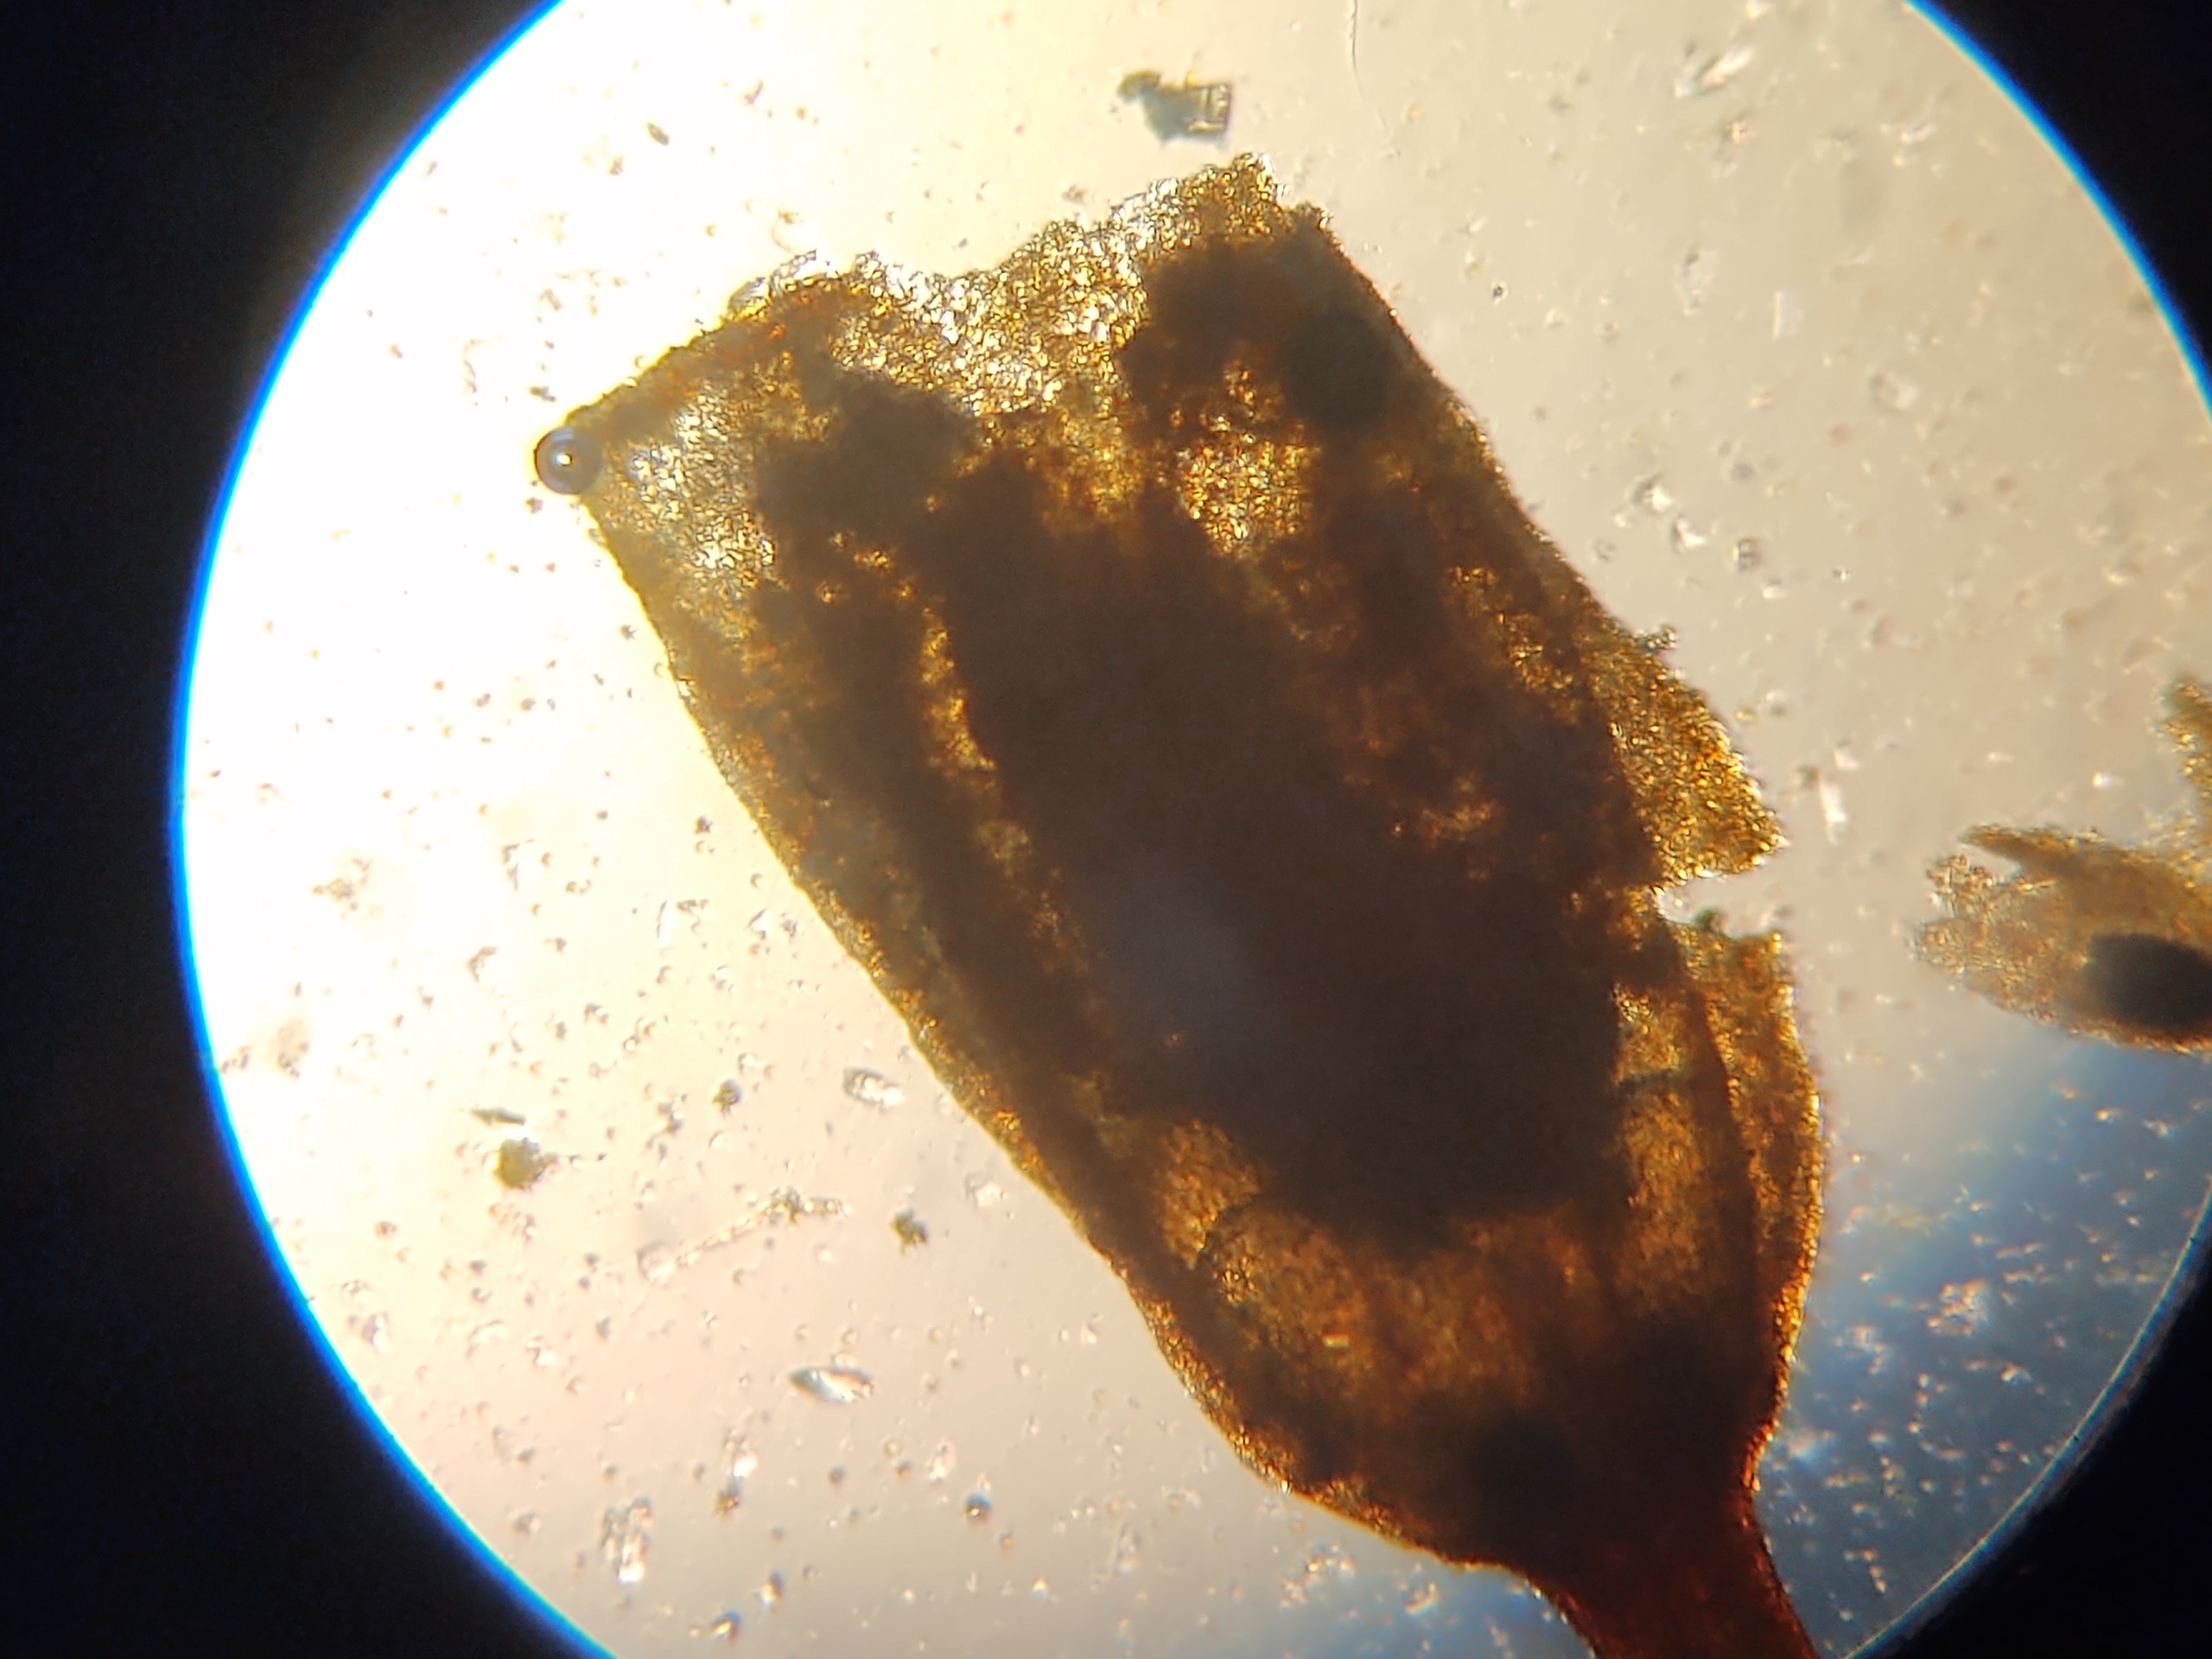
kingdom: Plantae
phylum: Bryophyta
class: Bryopsida
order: Grimmiales
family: Grimmiaceae
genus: Grimmia
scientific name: Grimmia pulvinata
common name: Pude-gråmos
